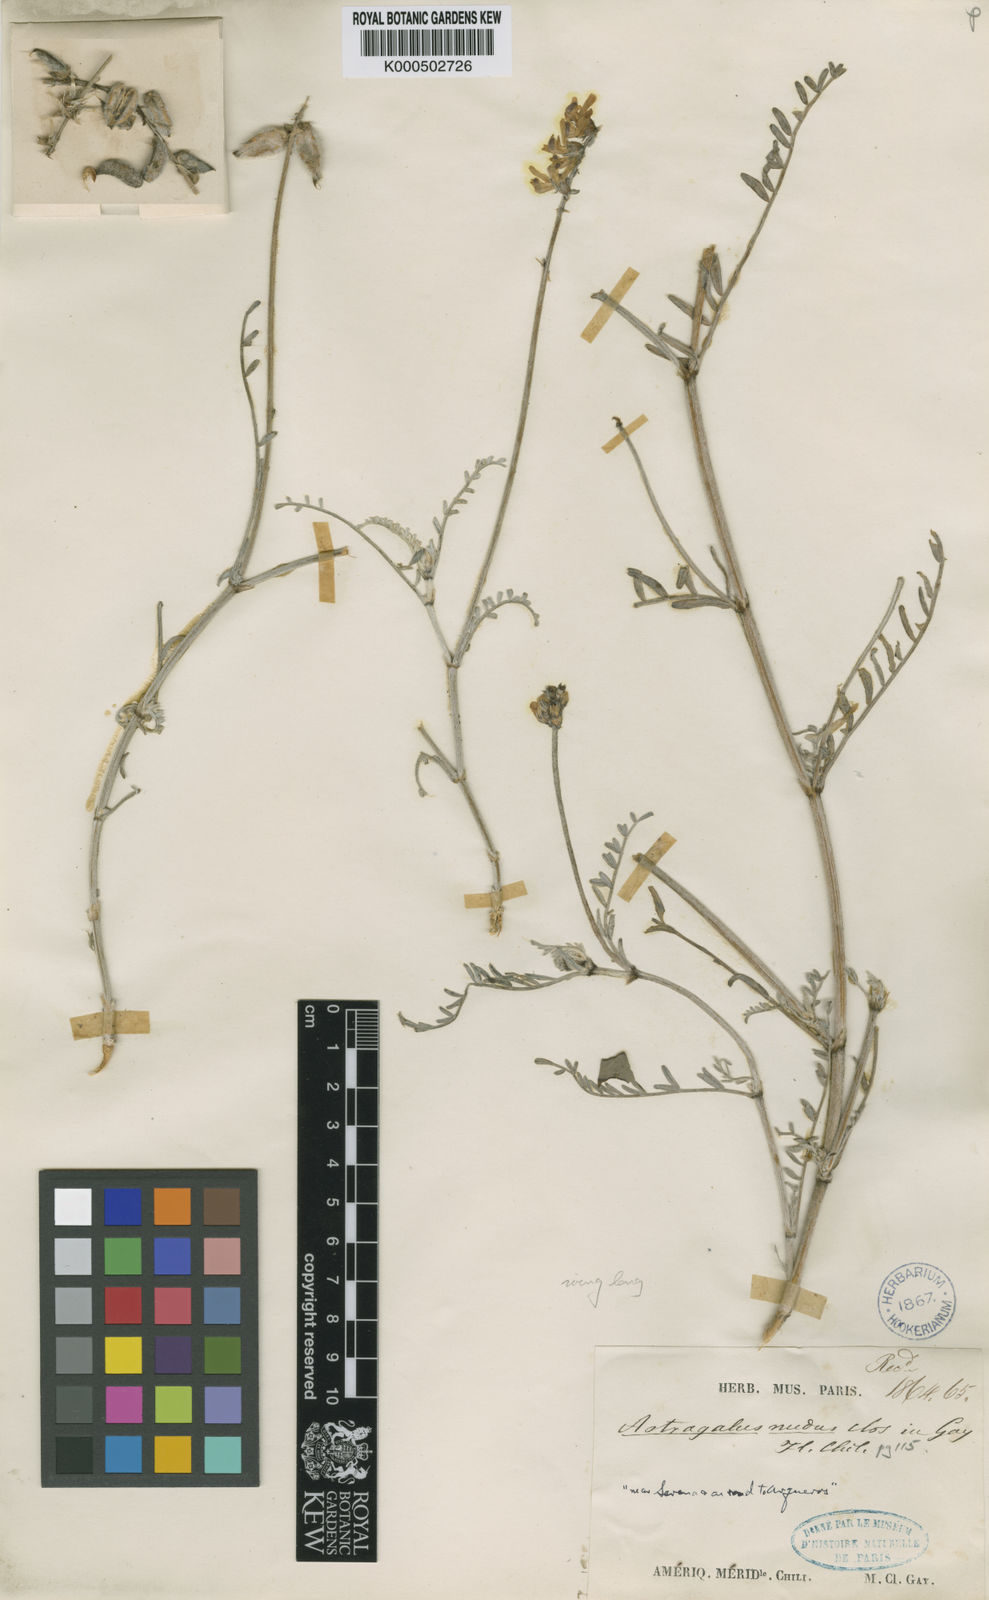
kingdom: Plantae
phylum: Tracheophyta
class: Magnoliopsida
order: Fabales
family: Fabaceae
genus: Astragalus
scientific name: Astragalus nudus
